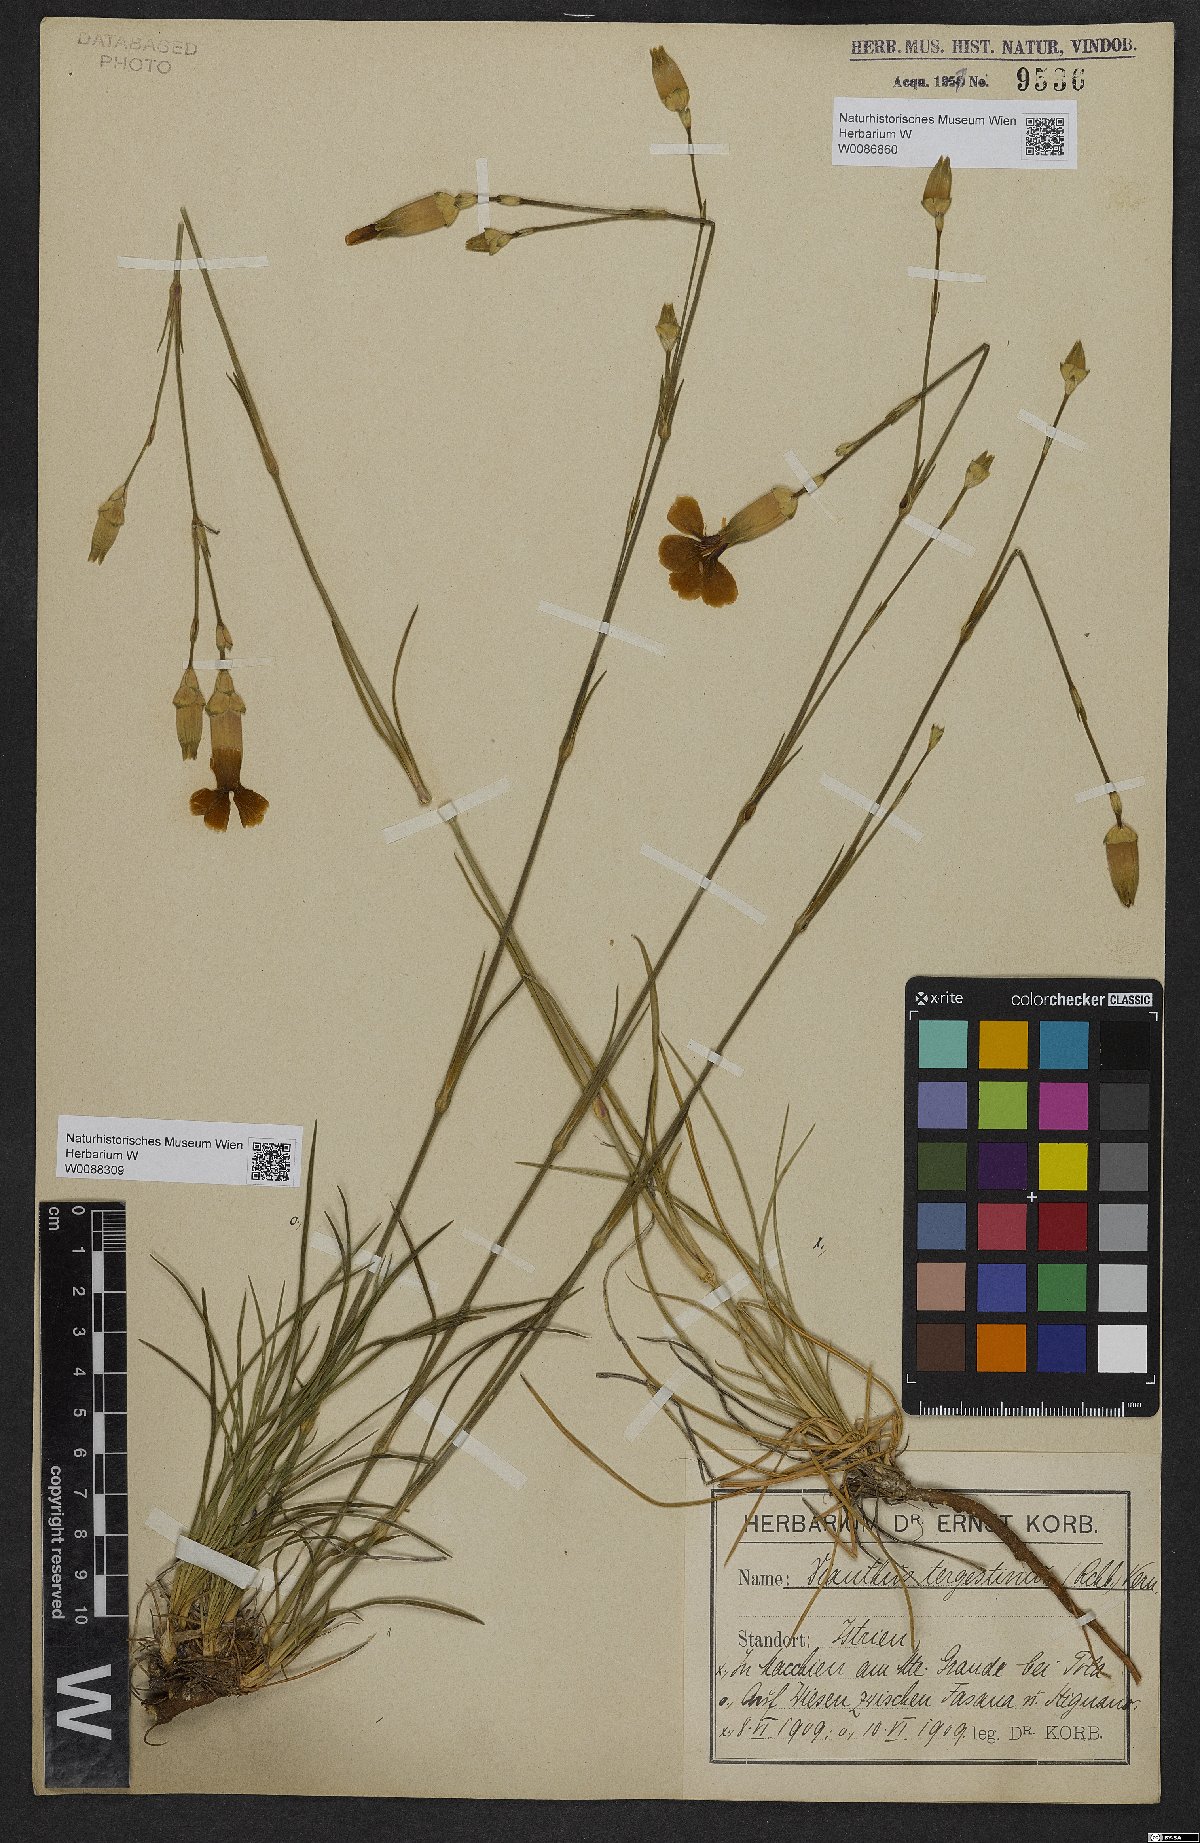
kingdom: Plantae
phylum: Tracheophyta
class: Magnoliopsida
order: Caryophyllales
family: Caryophyllaceae
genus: Dianthus
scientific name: Dianthus sylvestris
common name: Wood pink
